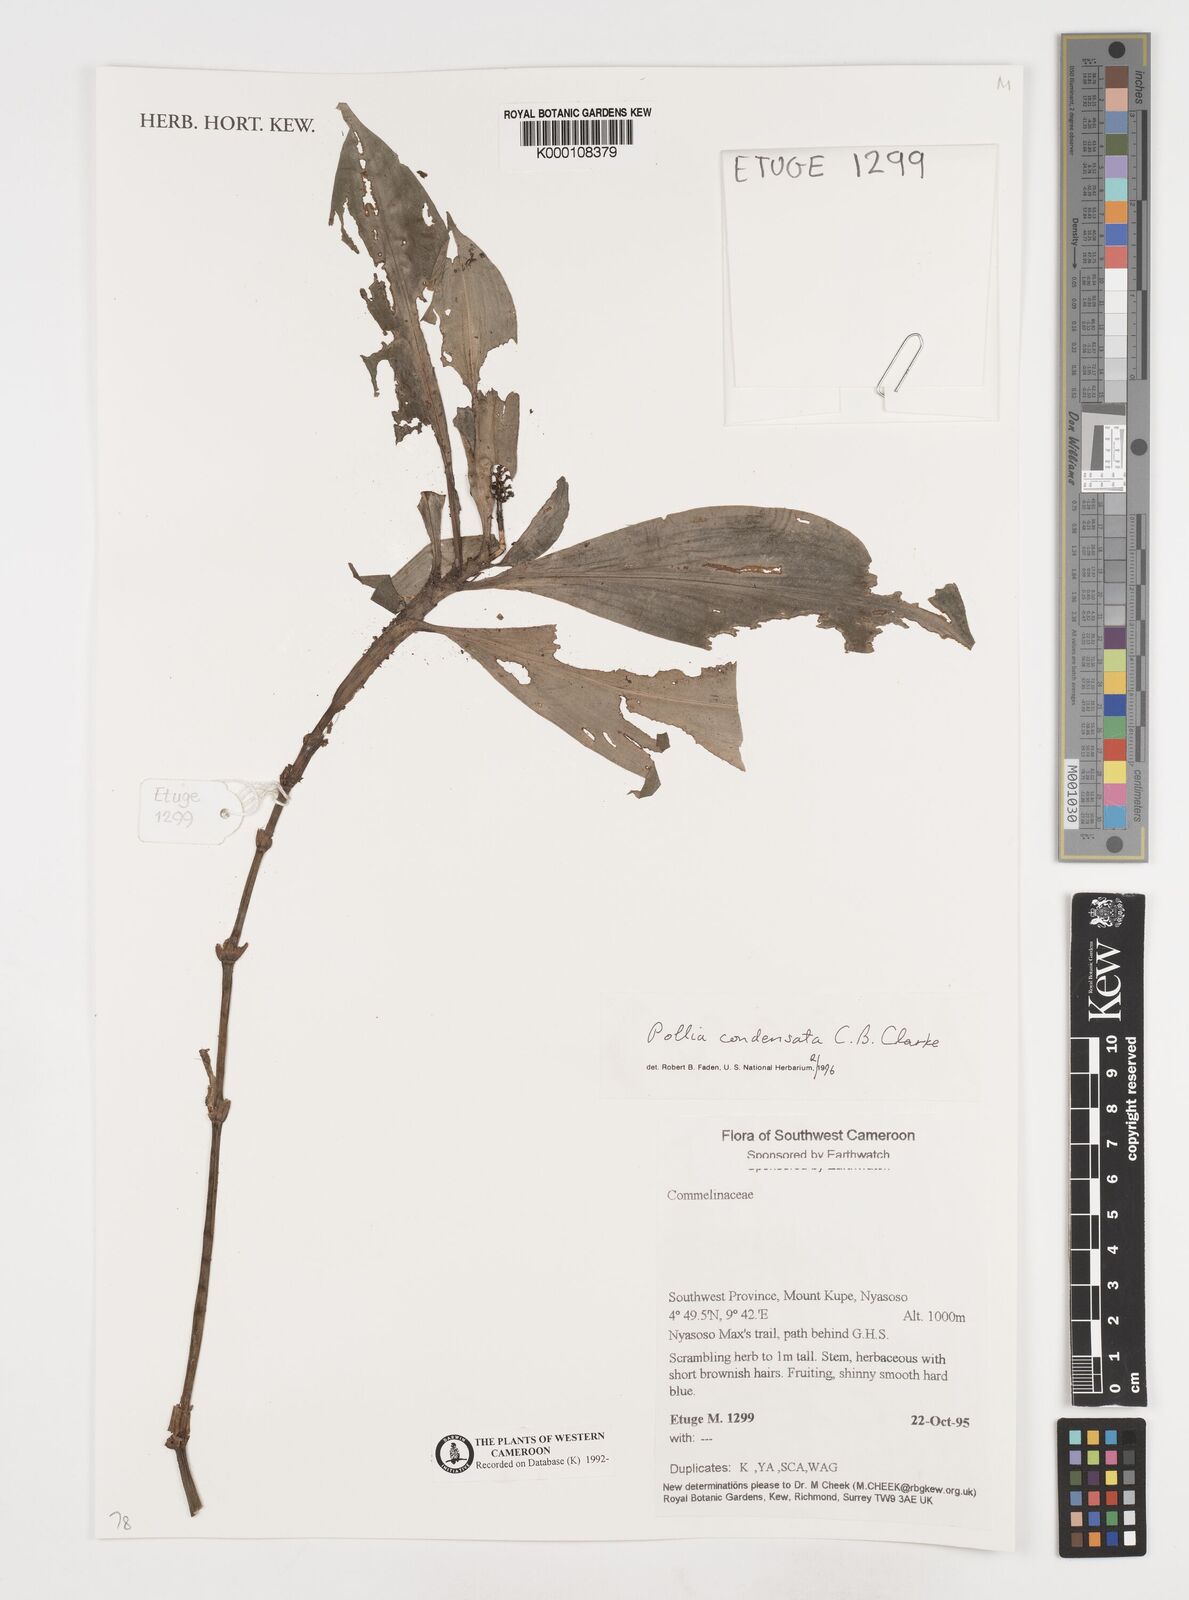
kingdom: Plantae
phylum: Tracheophyta
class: Liliopsida
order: Commelinales
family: Commelinaceae
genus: Pollia
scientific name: Pollia condensata
